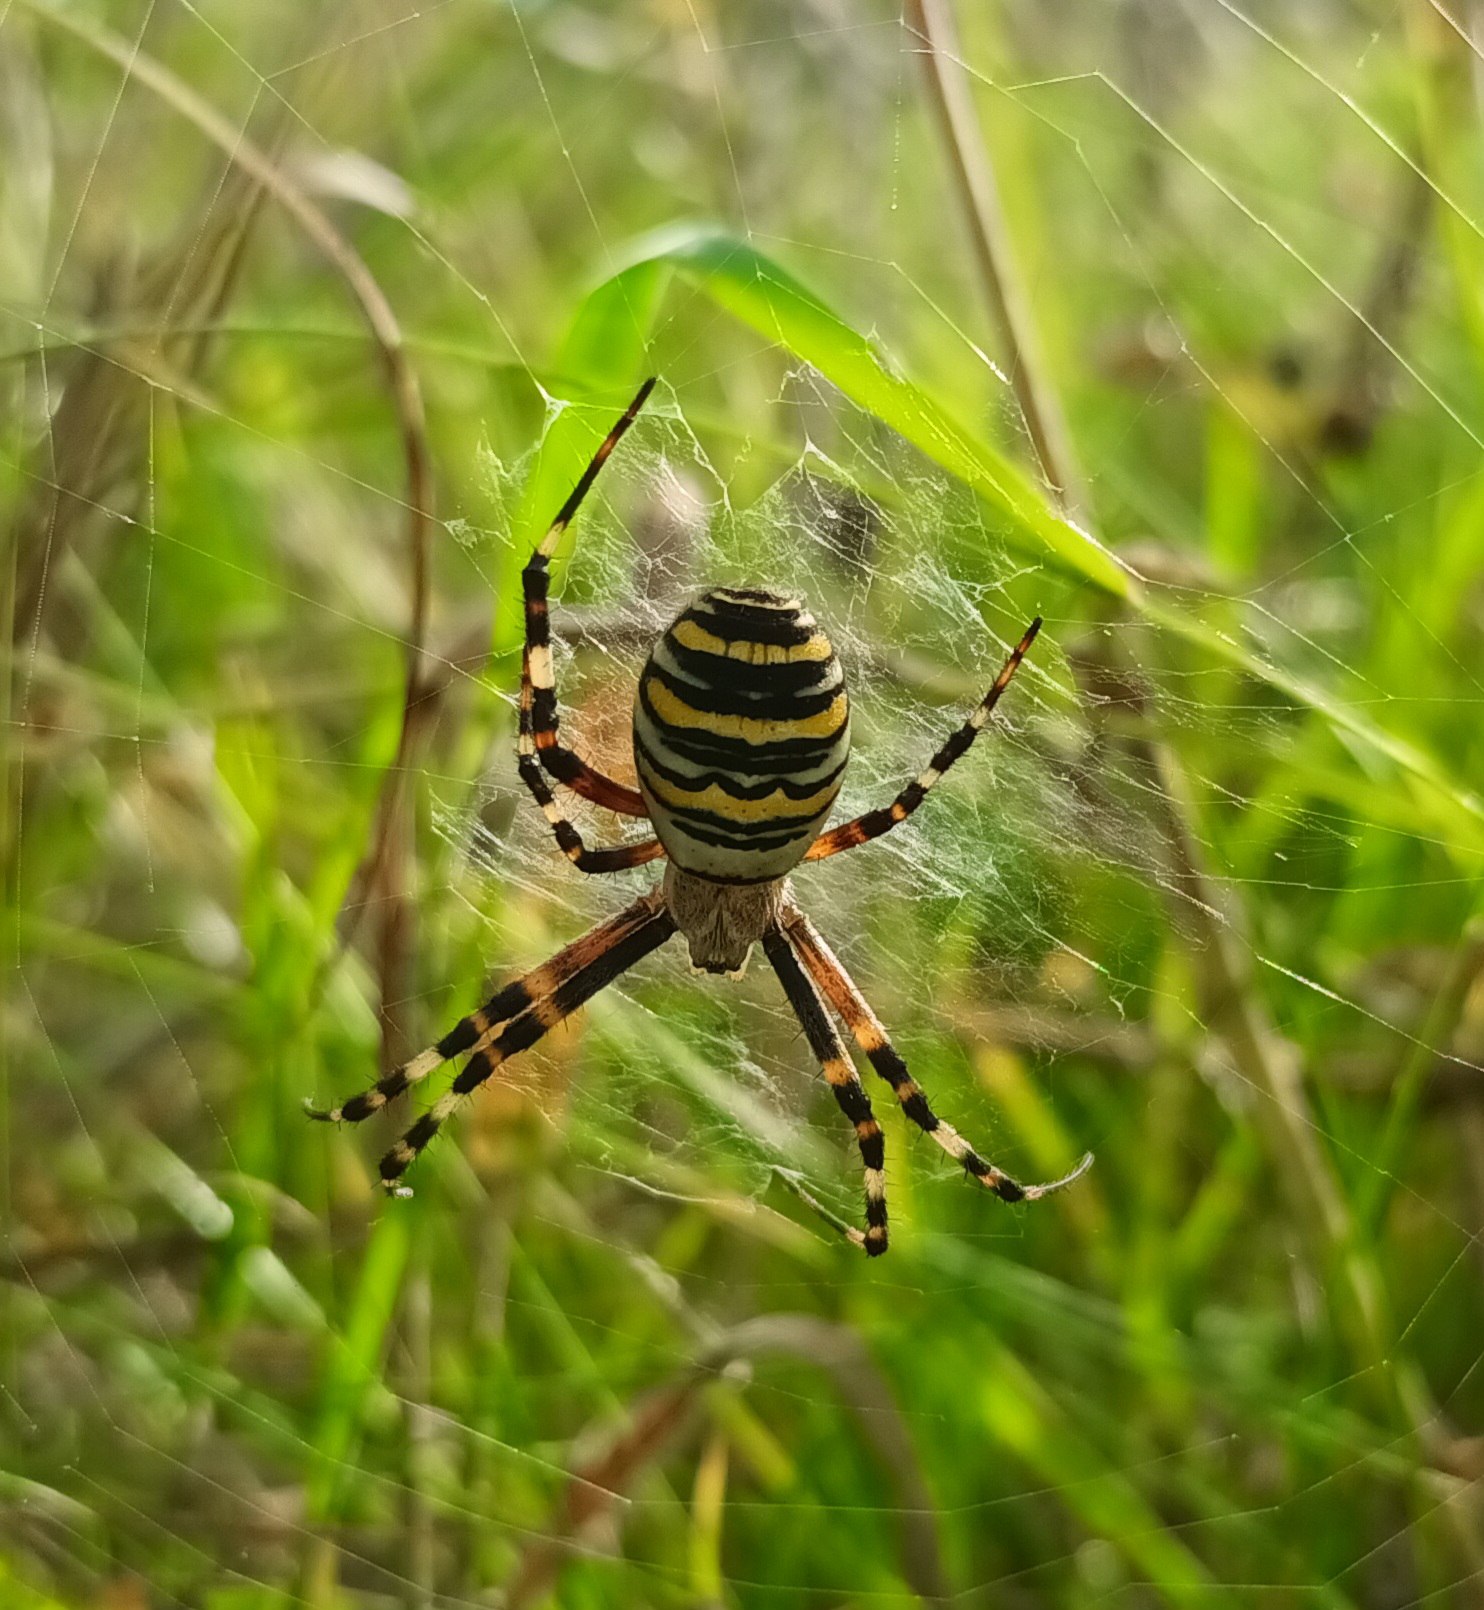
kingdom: Animalia
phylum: Arthropoda
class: Arachnida
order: Araneae
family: Araneidae
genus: Argiope
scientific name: Argiope bruennichi
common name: Hvepseedderkop
